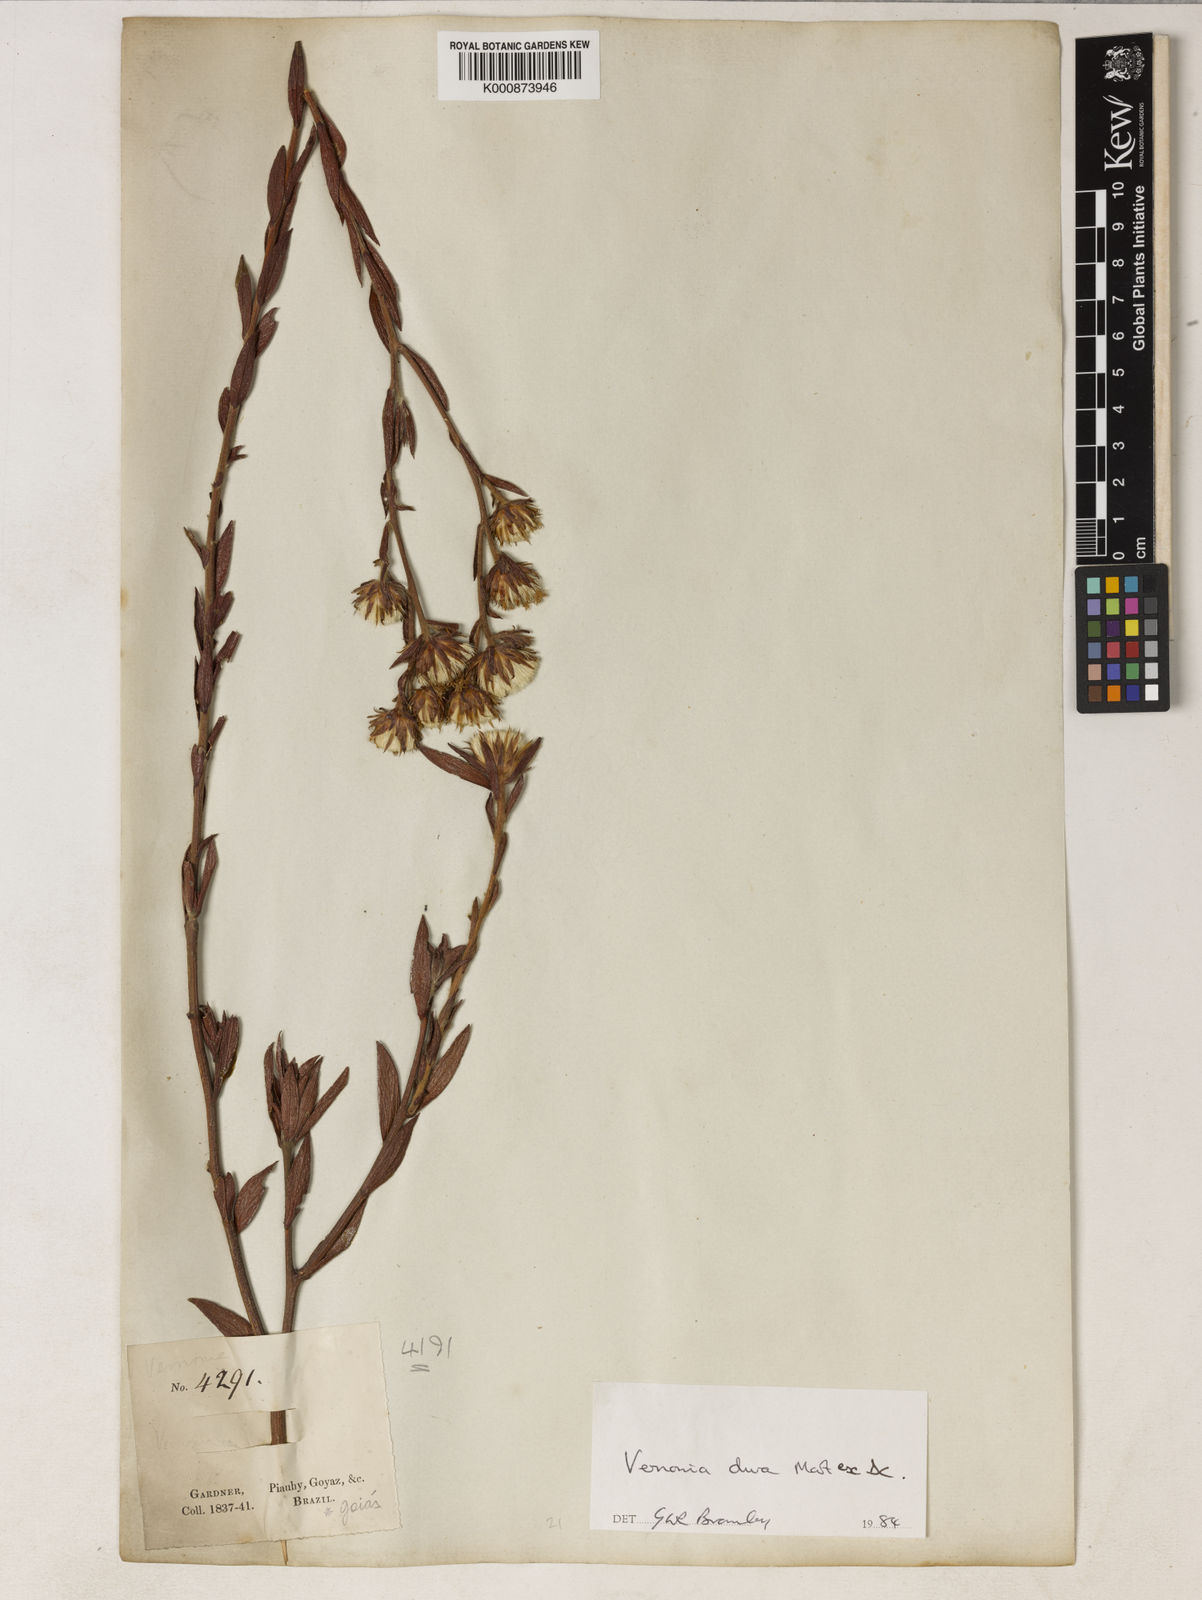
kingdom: Plantae
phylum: Tracheophyta
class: Magnoliopsida
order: Asterales
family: Asteraceae
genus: Lessingianthus
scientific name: Lessingianthus durus
